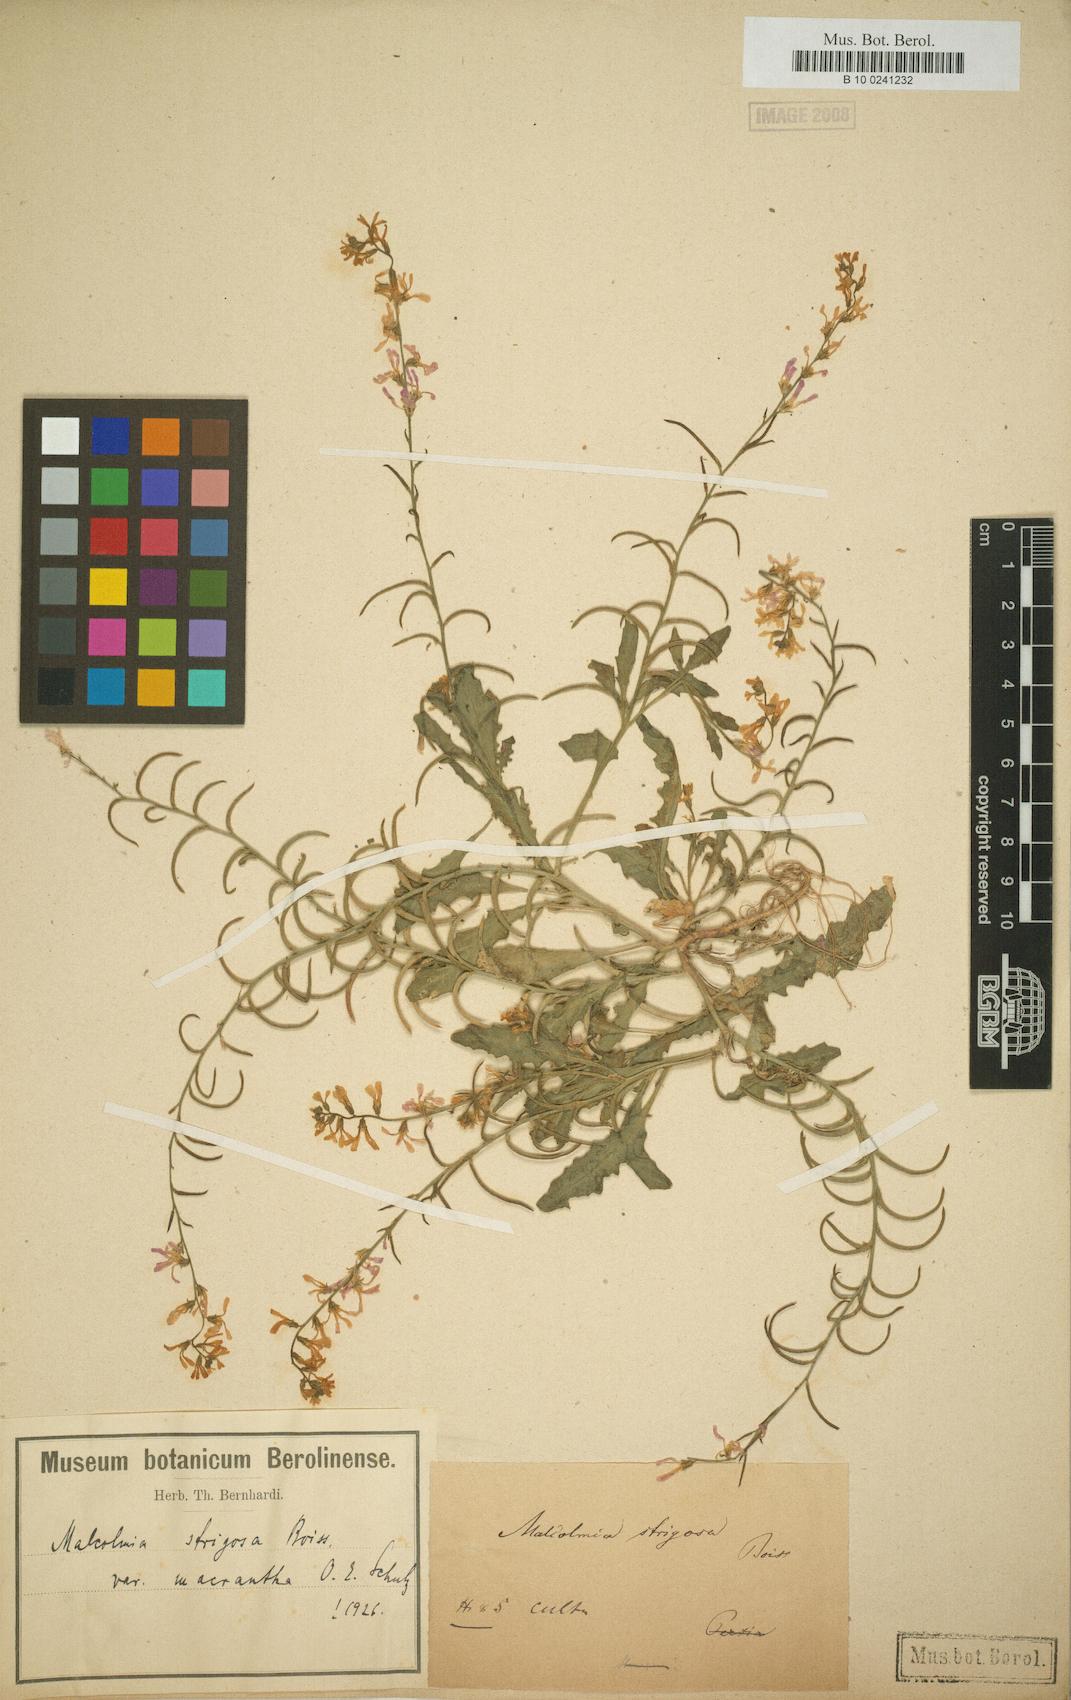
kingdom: Plantae
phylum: Tracheophyta
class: Magnoliopsida
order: Brassicales
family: Brassicaceae
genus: Strigosella
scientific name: Strigosella cabulica
